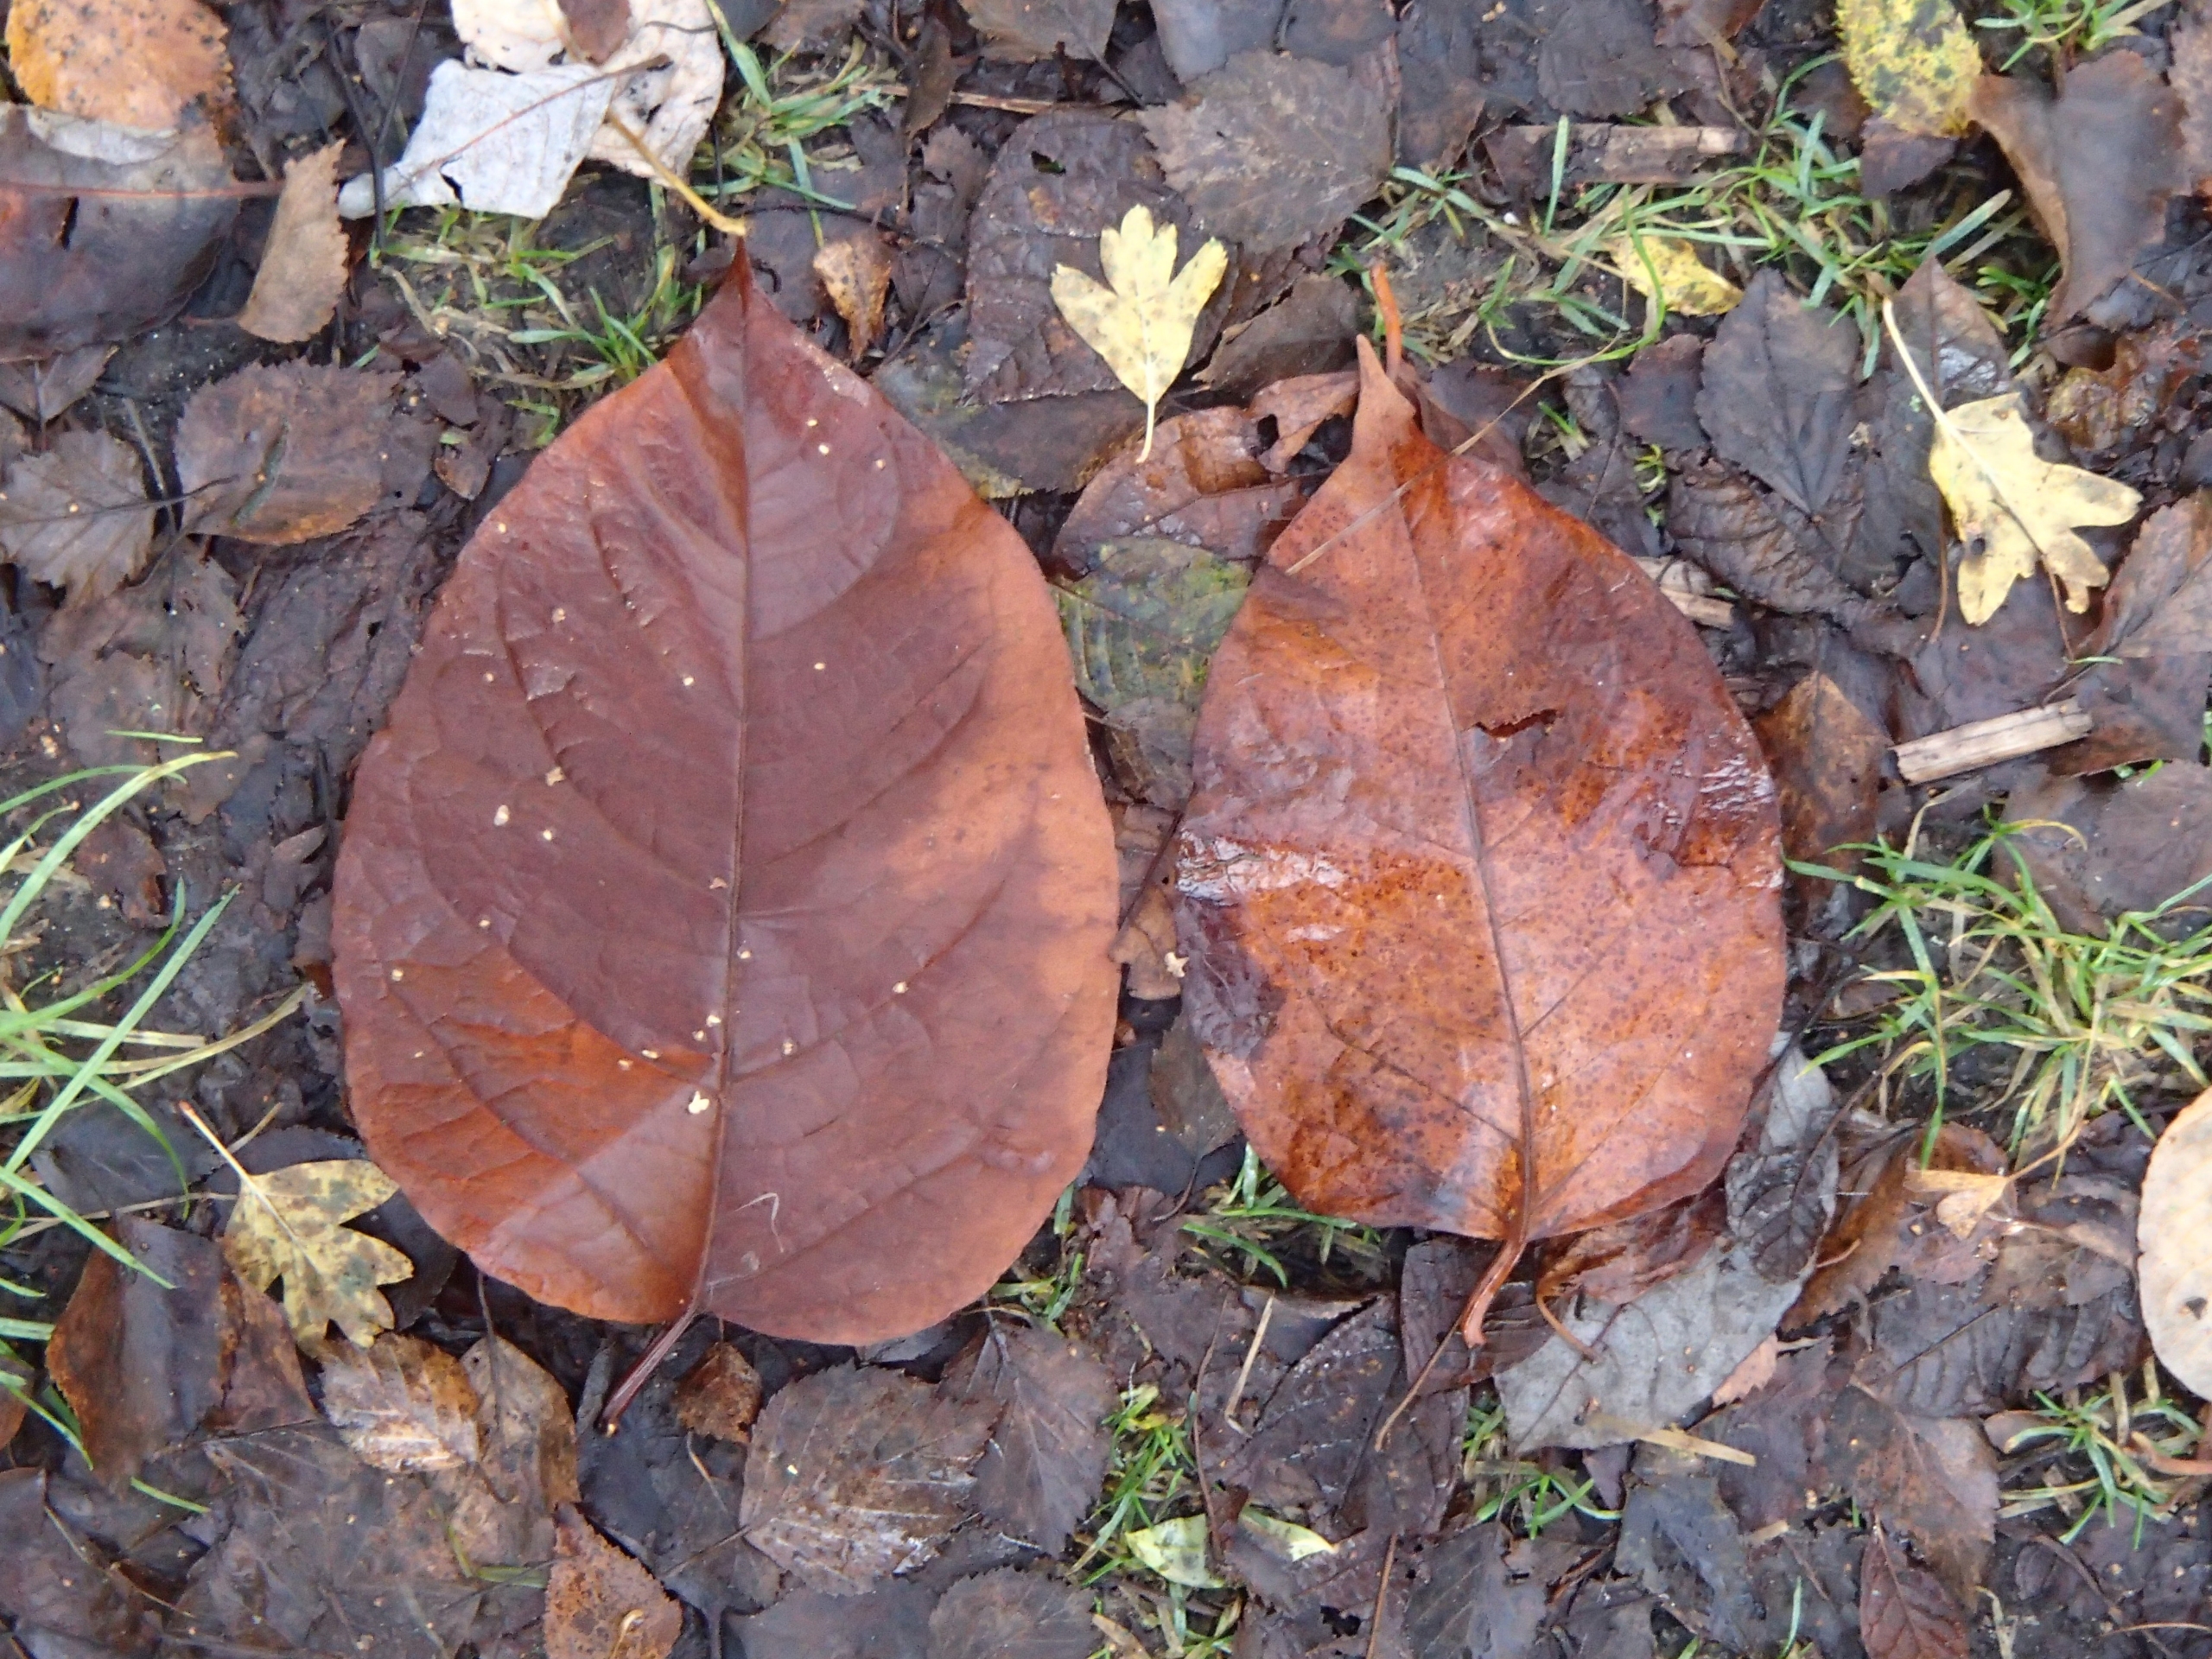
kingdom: Plantae
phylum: Tracheophyta
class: Magnoliopsida
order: Caryophyllales
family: Polygonaceae
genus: Reynoutria
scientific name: Reynoutria japonica
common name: Japan-pileurt
